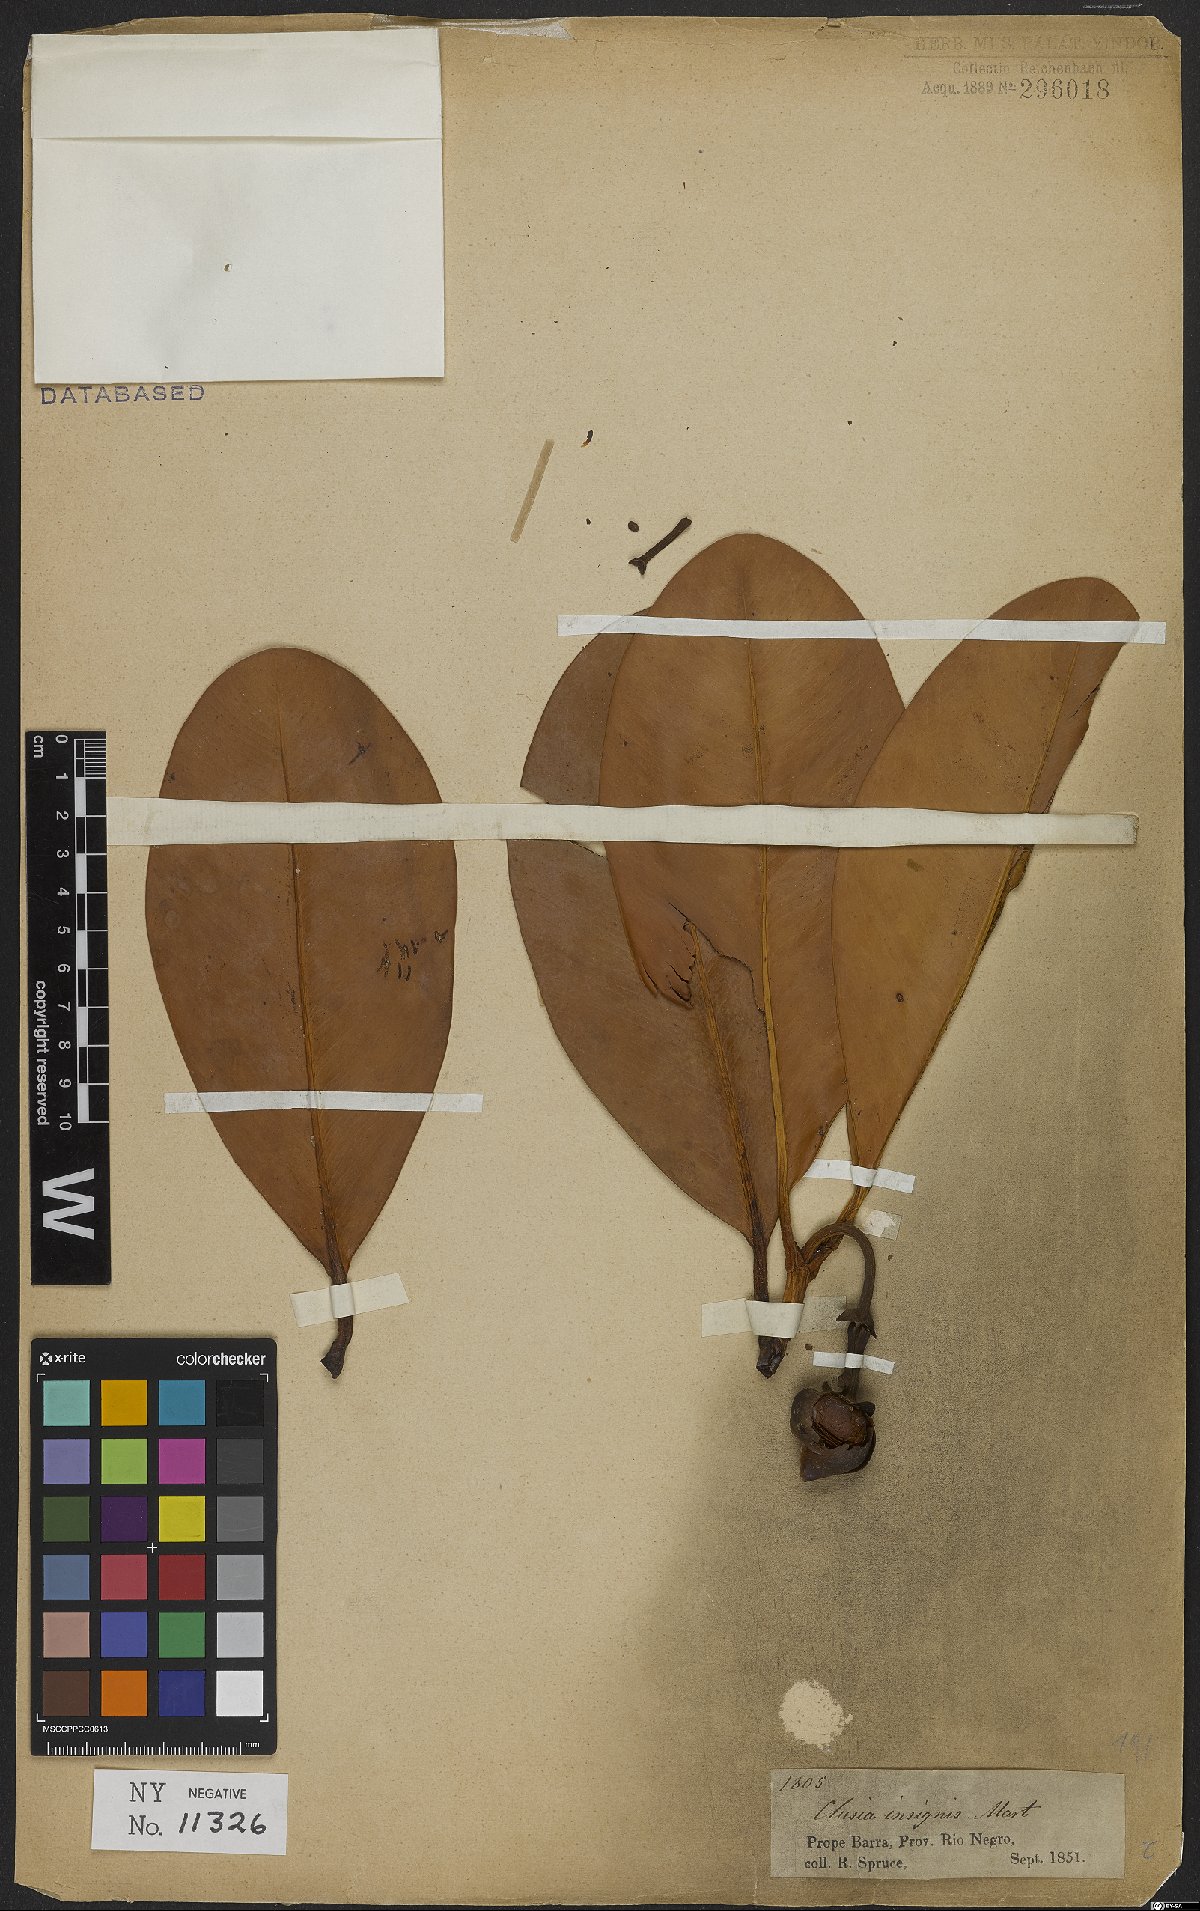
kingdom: Plantae
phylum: Tracheophyta
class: Magnoliopsida
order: Malpighiales
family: Clusiaceae
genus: Clusia
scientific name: Clusia insignis
